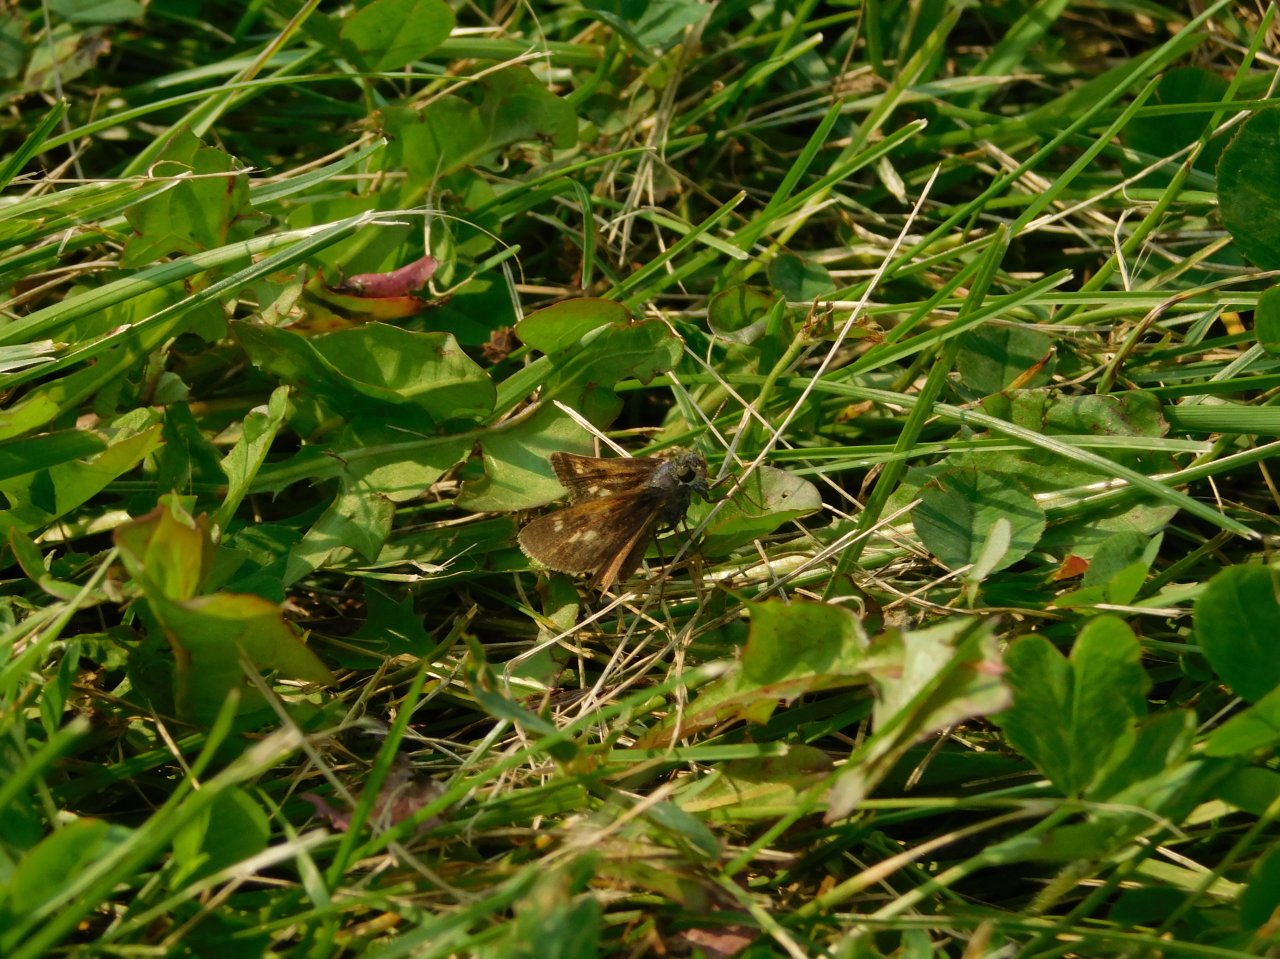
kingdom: Animalia
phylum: Arthropoda
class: Insecta
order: Lepidoptera
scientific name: Lepidoptera
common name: Butterflies
